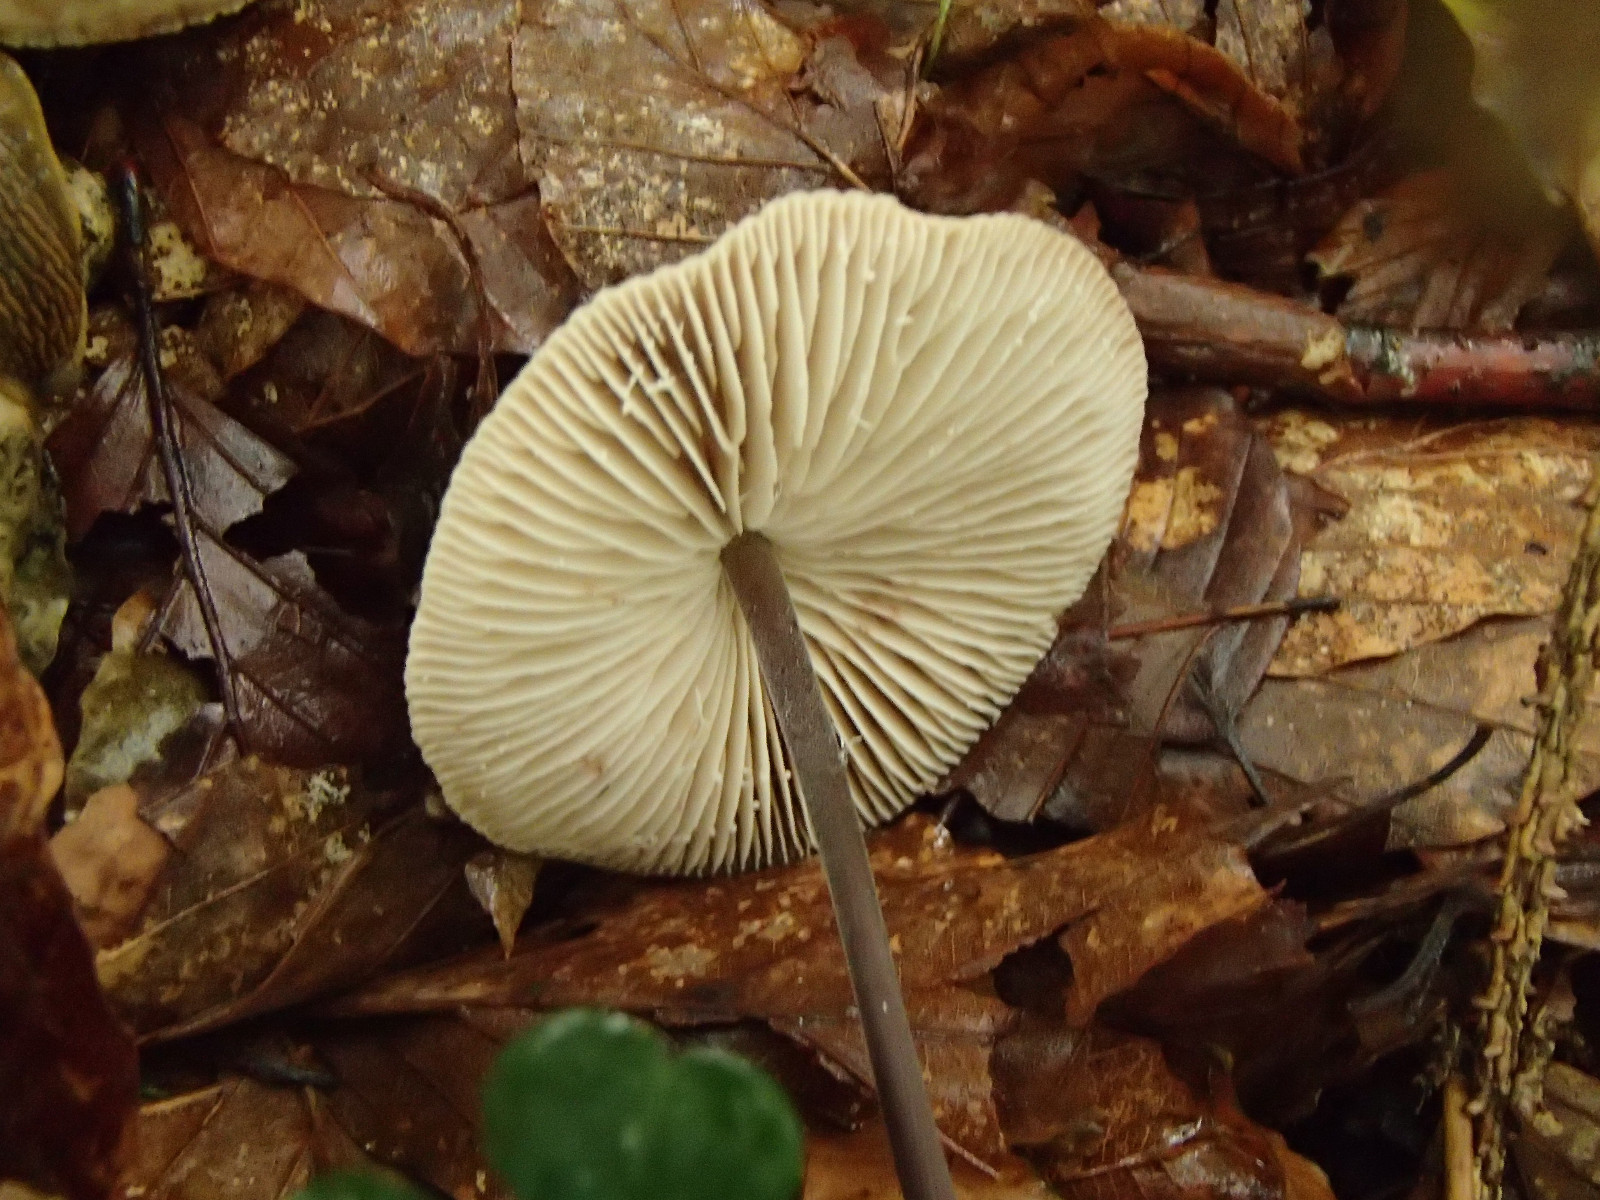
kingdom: Fungi
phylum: Basidiomycota
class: Agaricomycetes
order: Agaricales
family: Omphalotaceae
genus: Mycetinis
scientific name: Mycetinis alliaceus
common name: stor løghat
